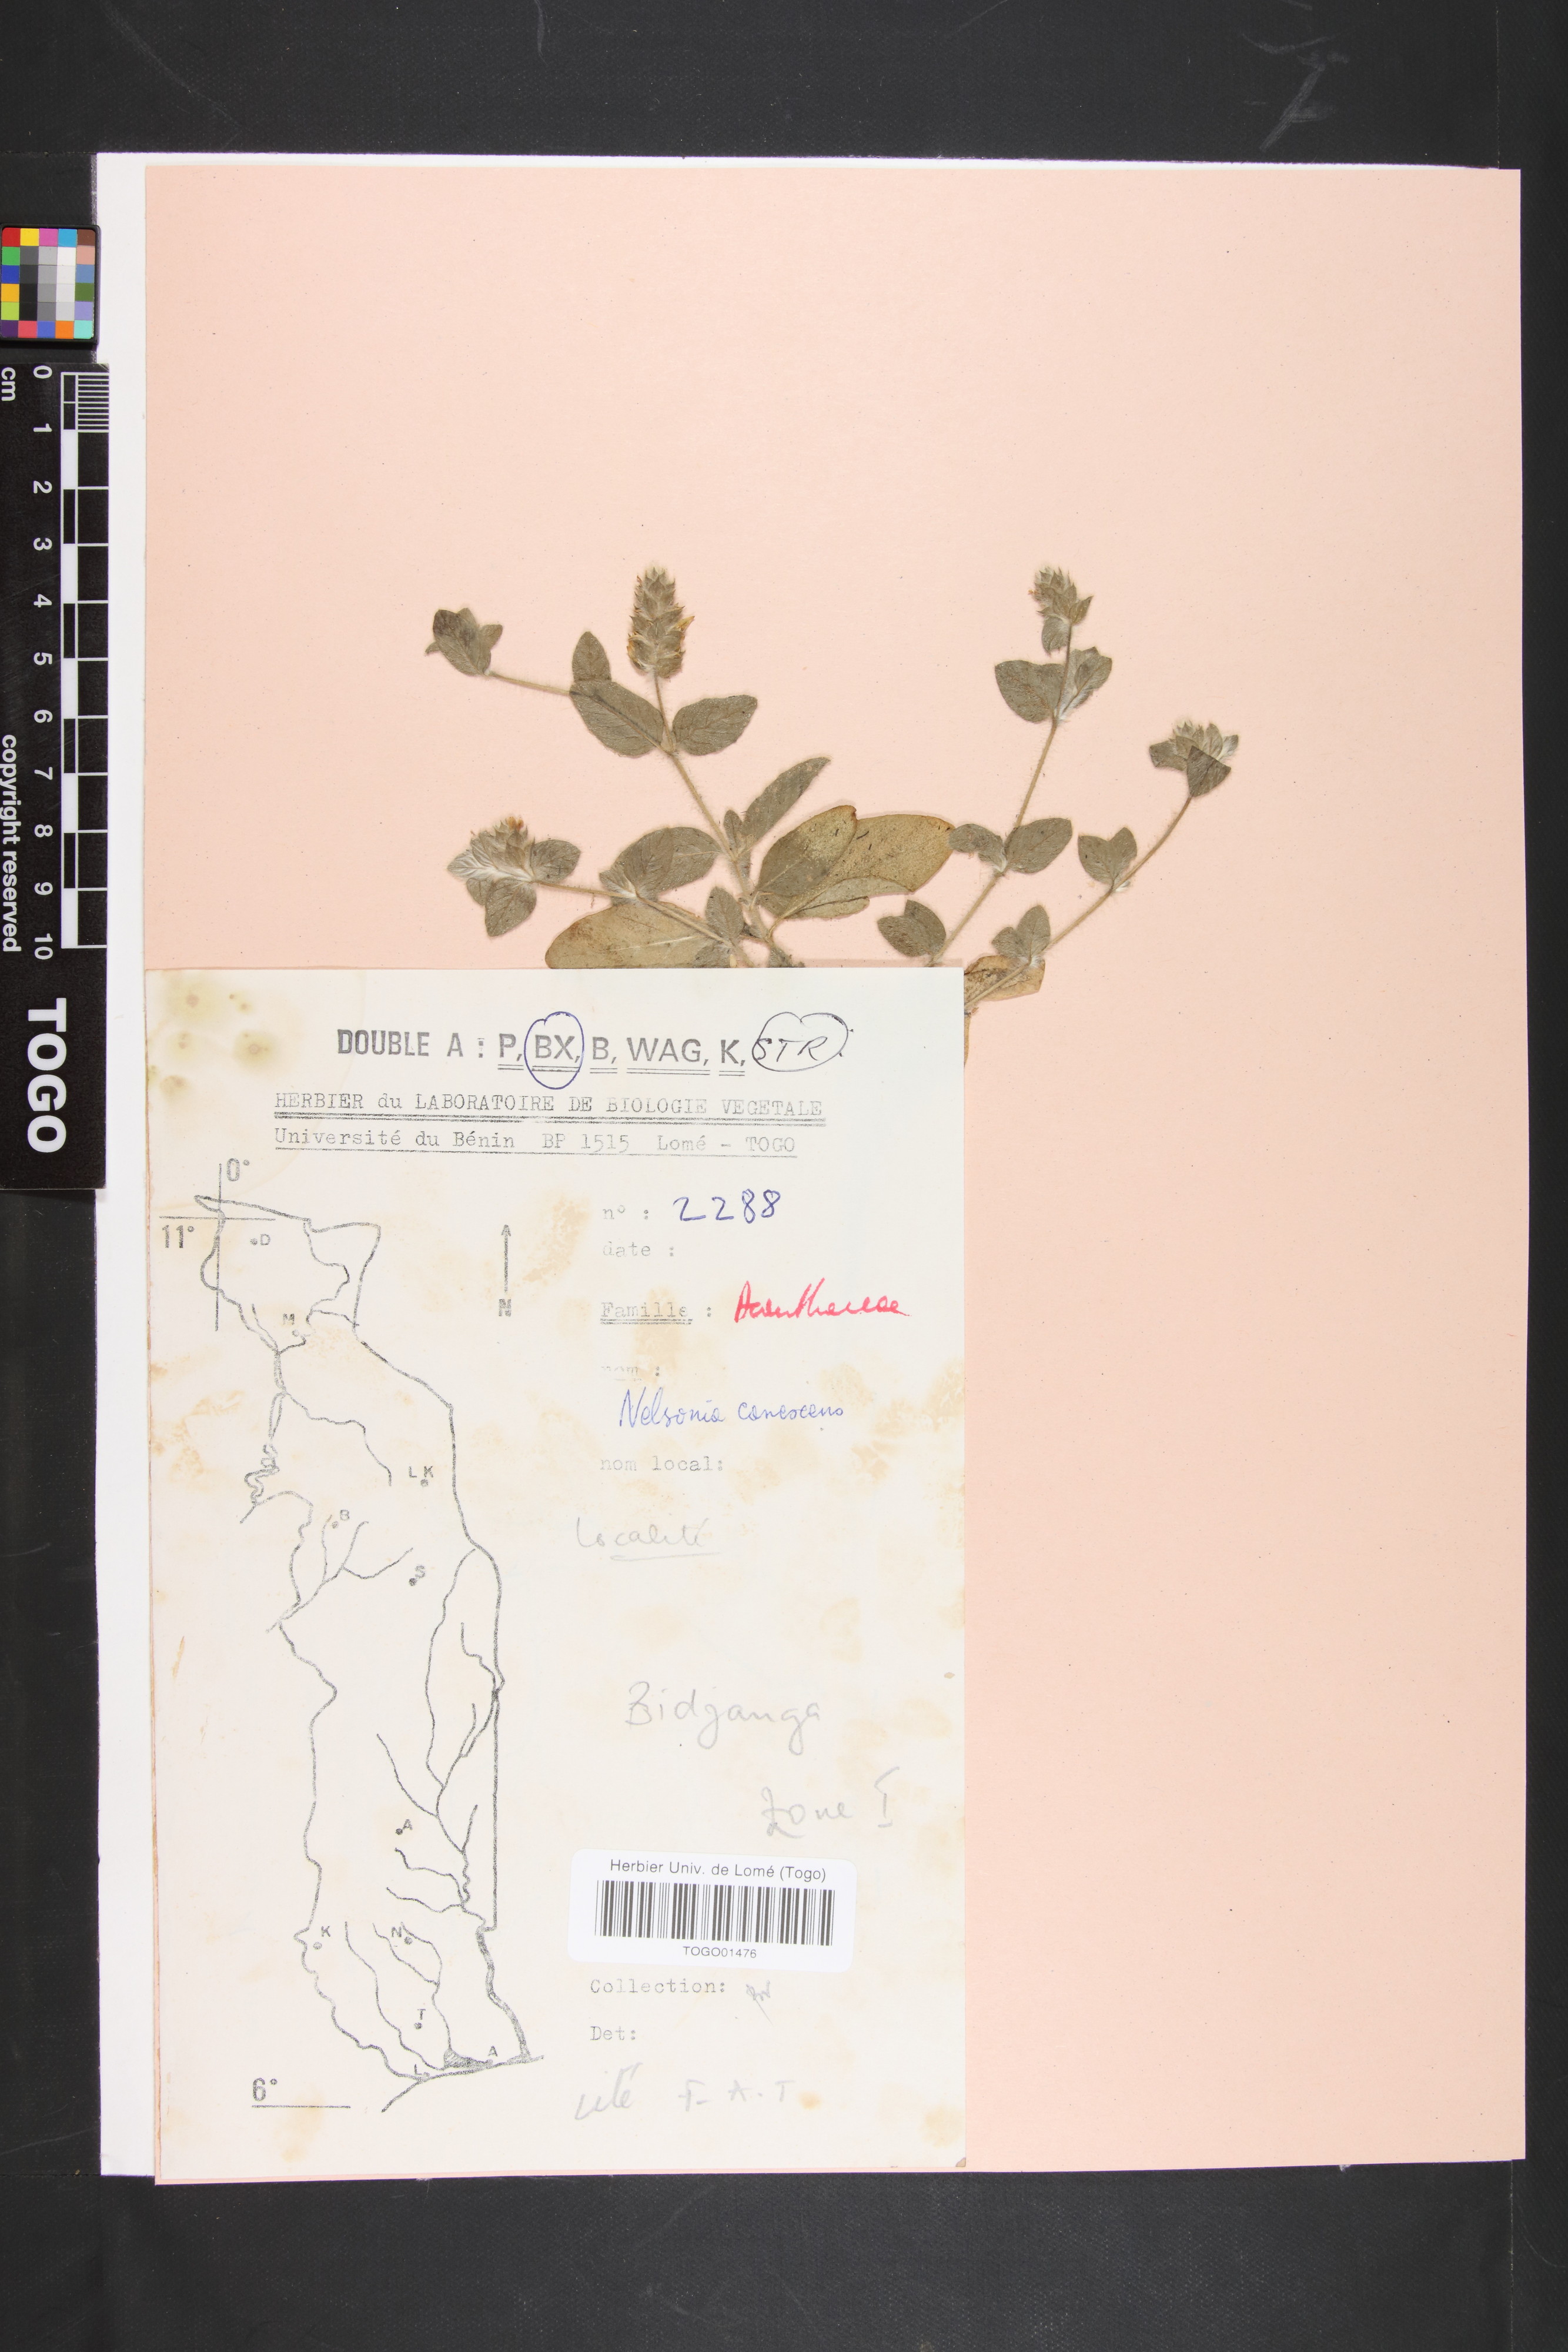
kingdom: Plantae
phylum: Tracheophyta
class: Magnoliopsida
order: Lamiales
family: Acanthaceae
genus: Nelsonia
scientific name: Nelsonia canescens
